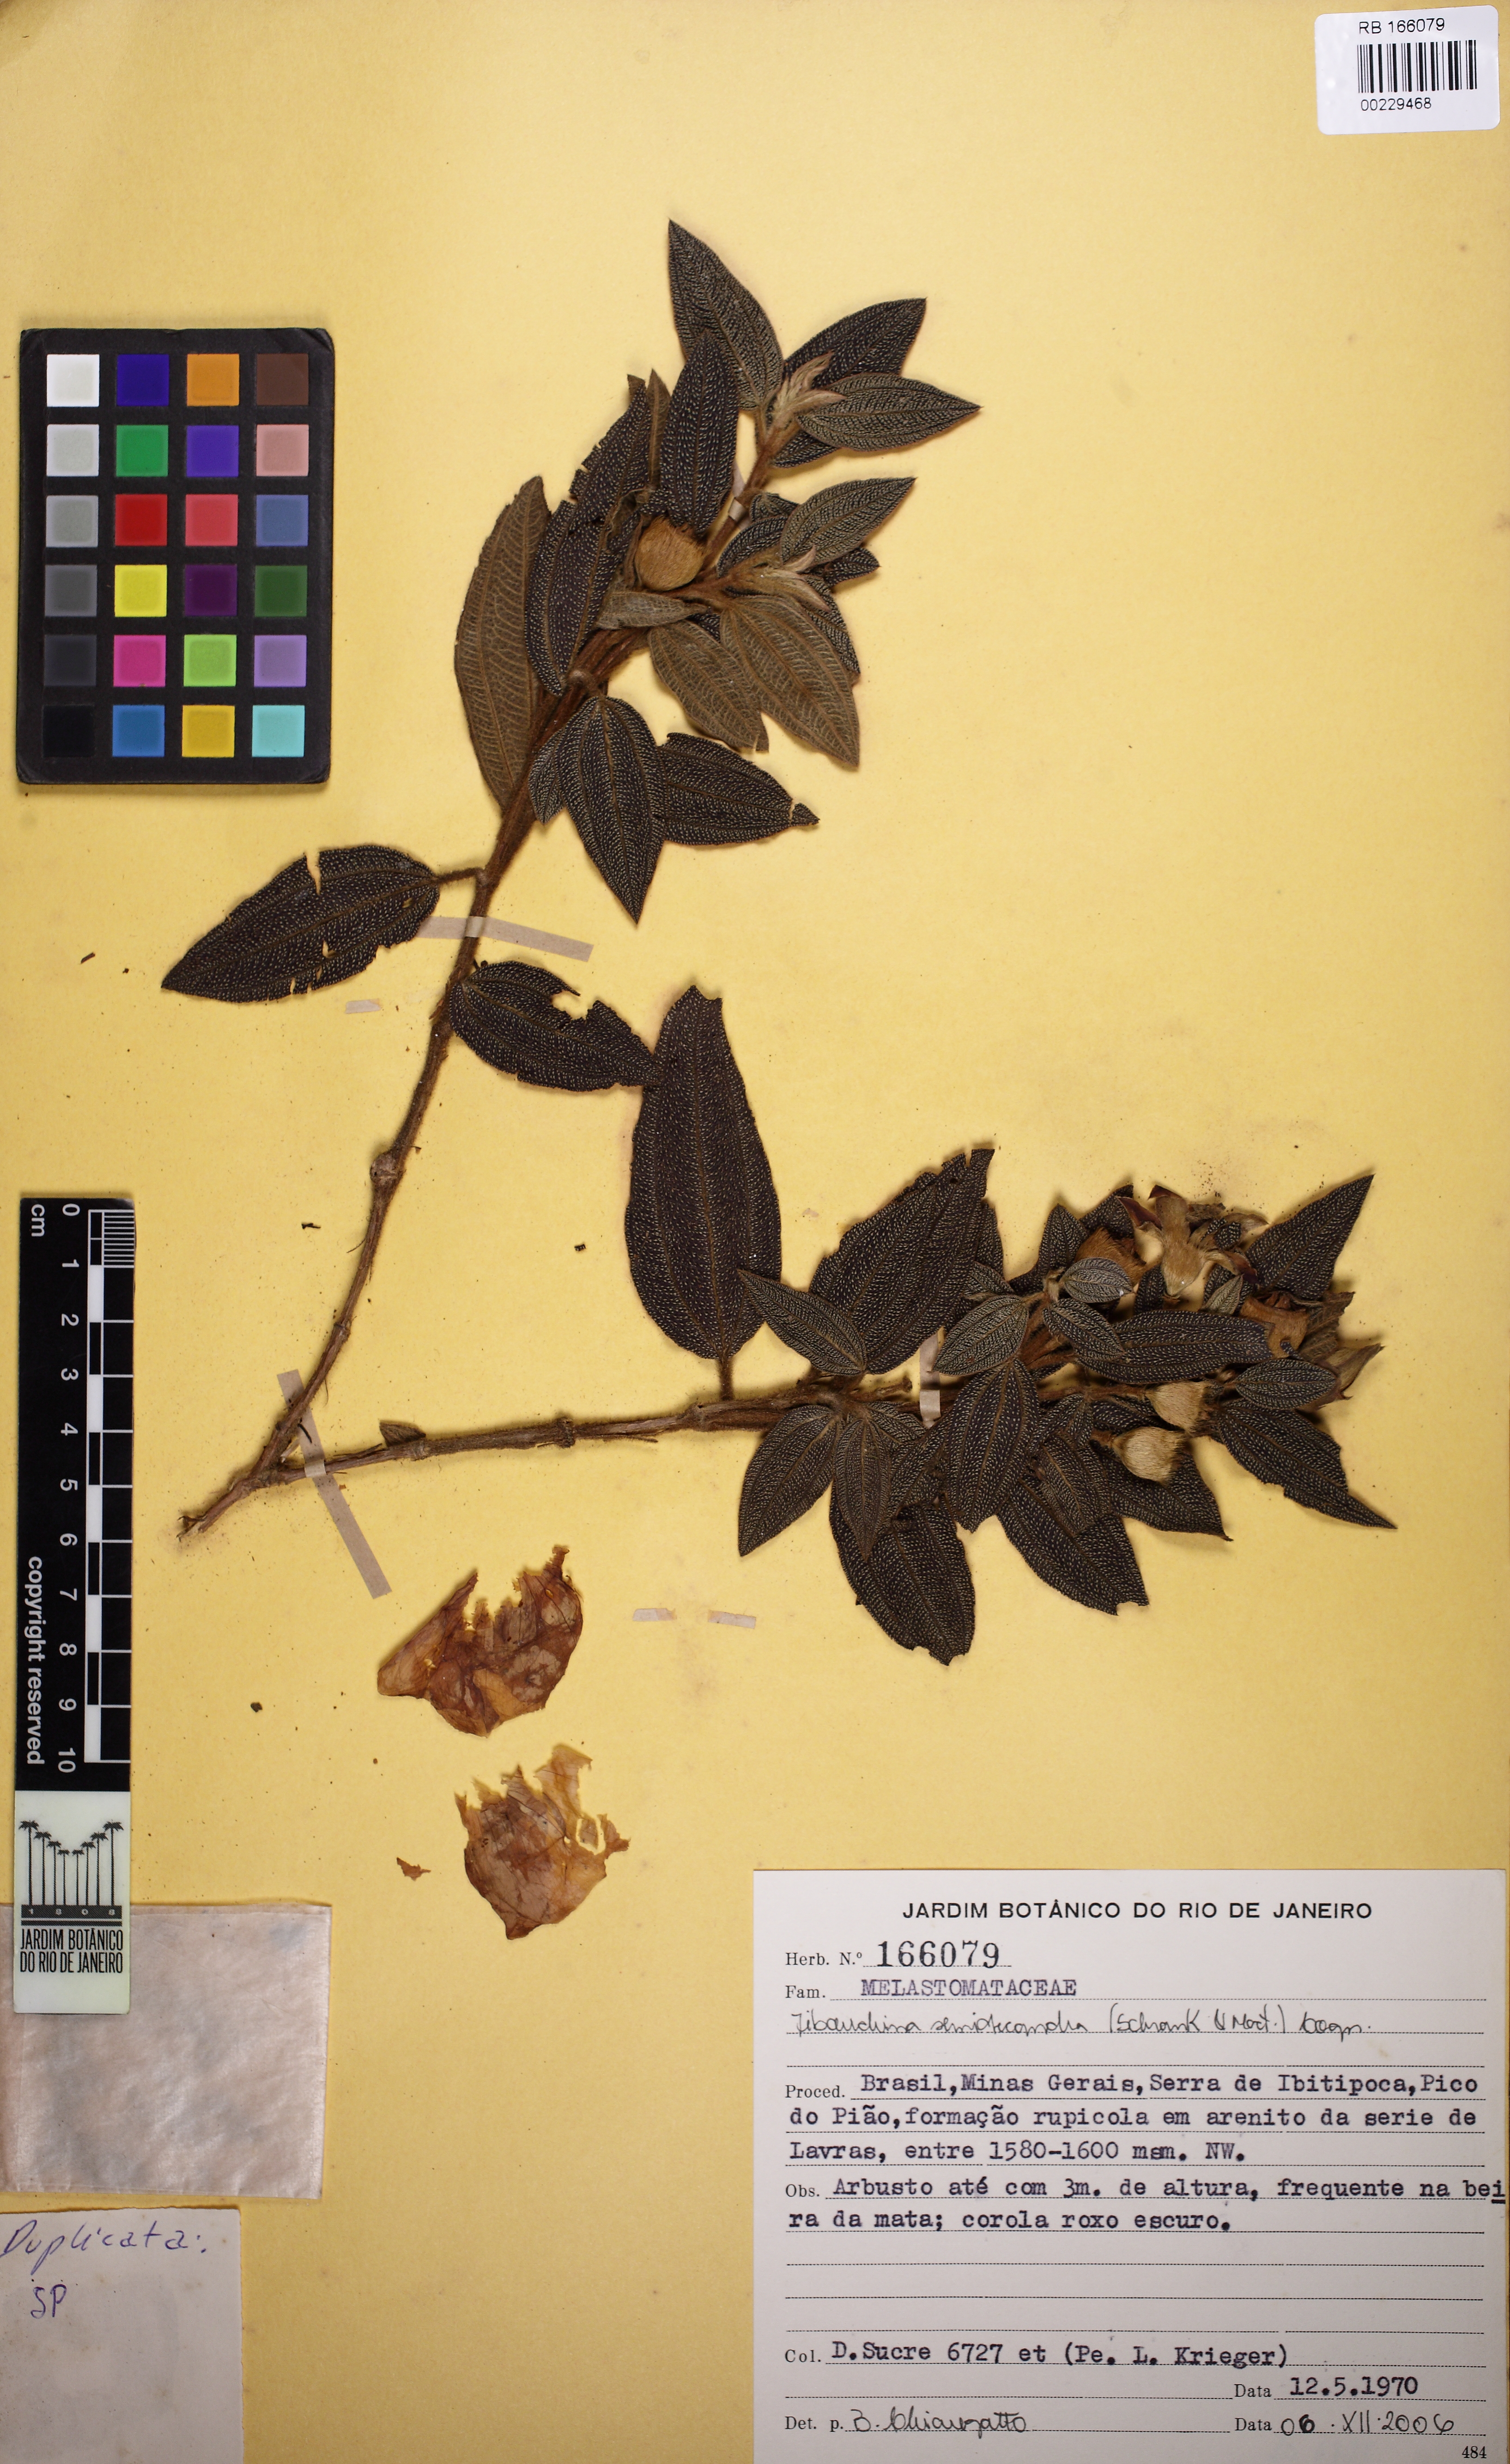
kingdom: Plantae
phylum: Tracheophyta
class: Magnoliopsida
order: Myrtales
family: Melastomataceae
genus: Pleroma
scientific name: Pleroma semidecandrum
